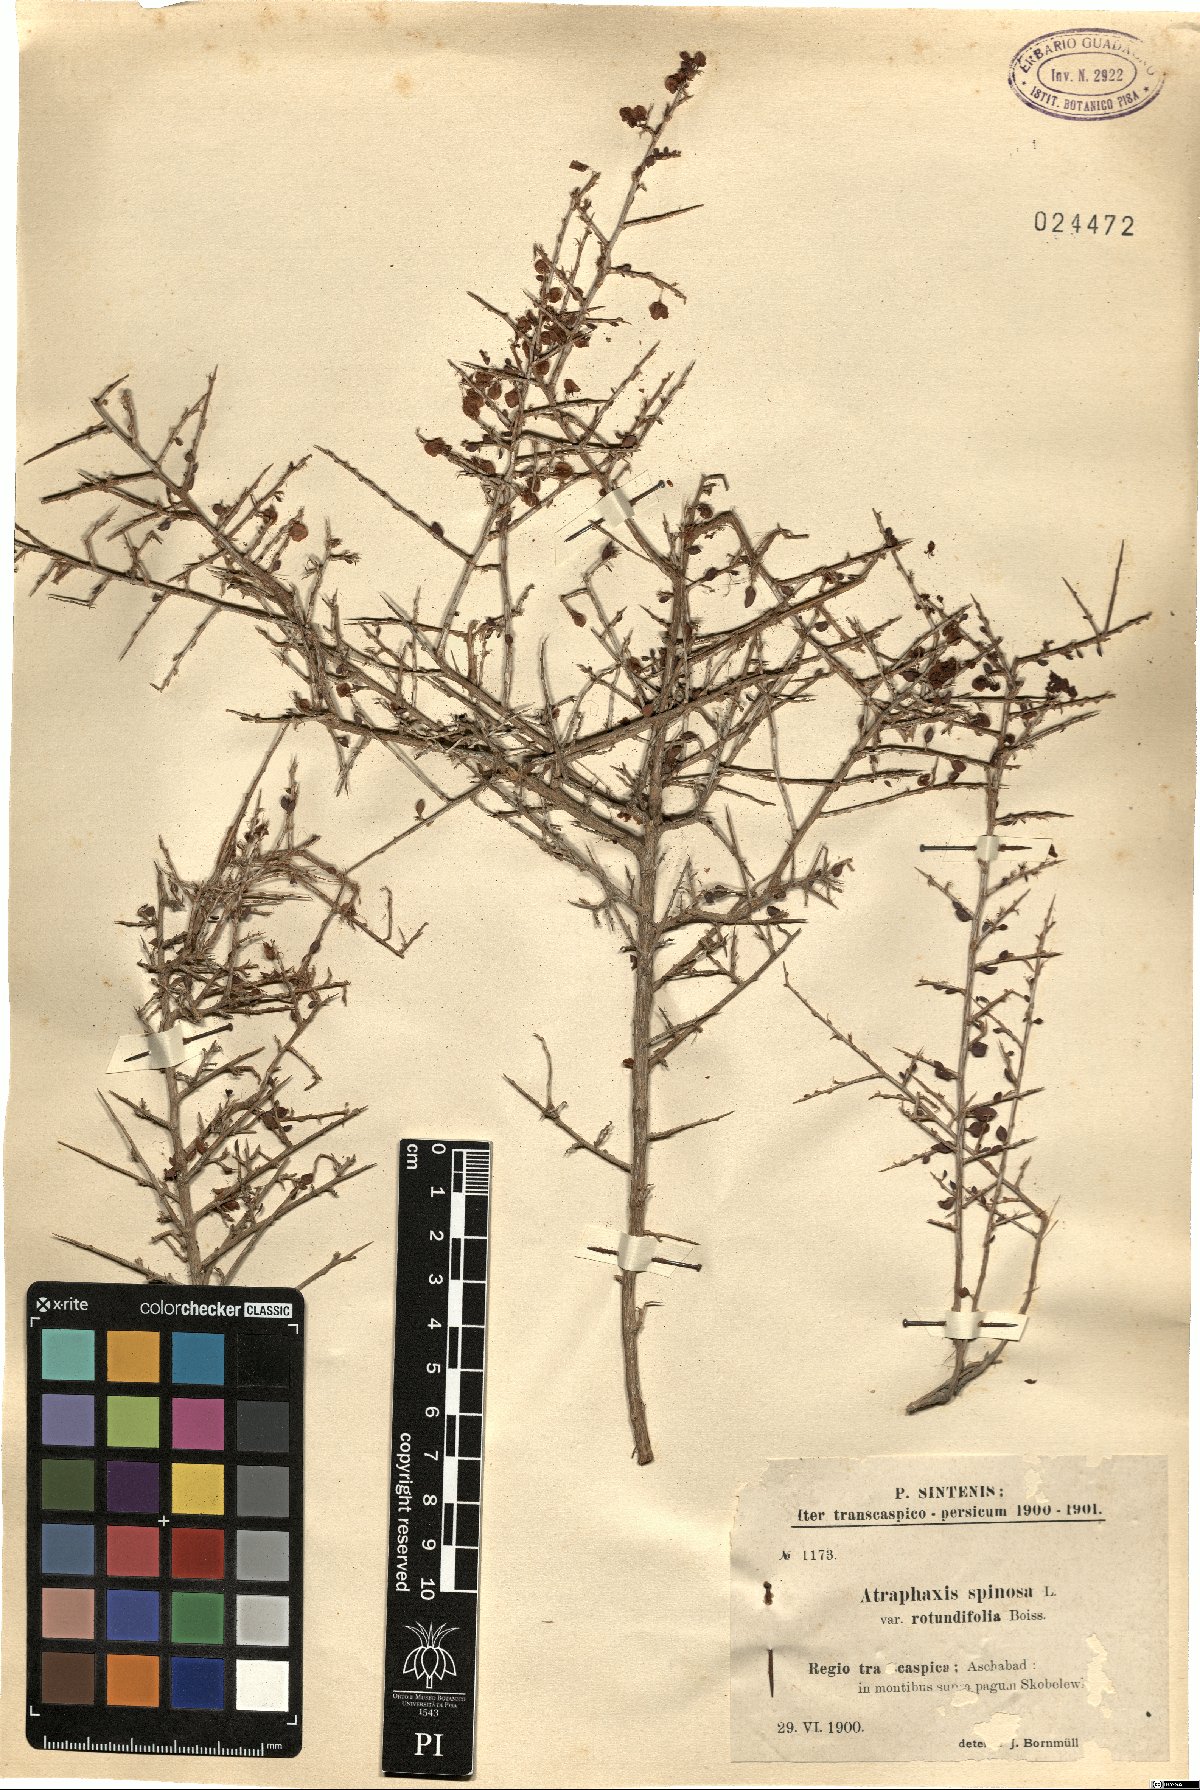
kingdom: Plantae
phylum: Tracheophyta
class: Magnoliopsida
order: Caryophyllales
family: Polygonaceae
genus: Atraphaxis
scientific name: Atraphaxis replicata
